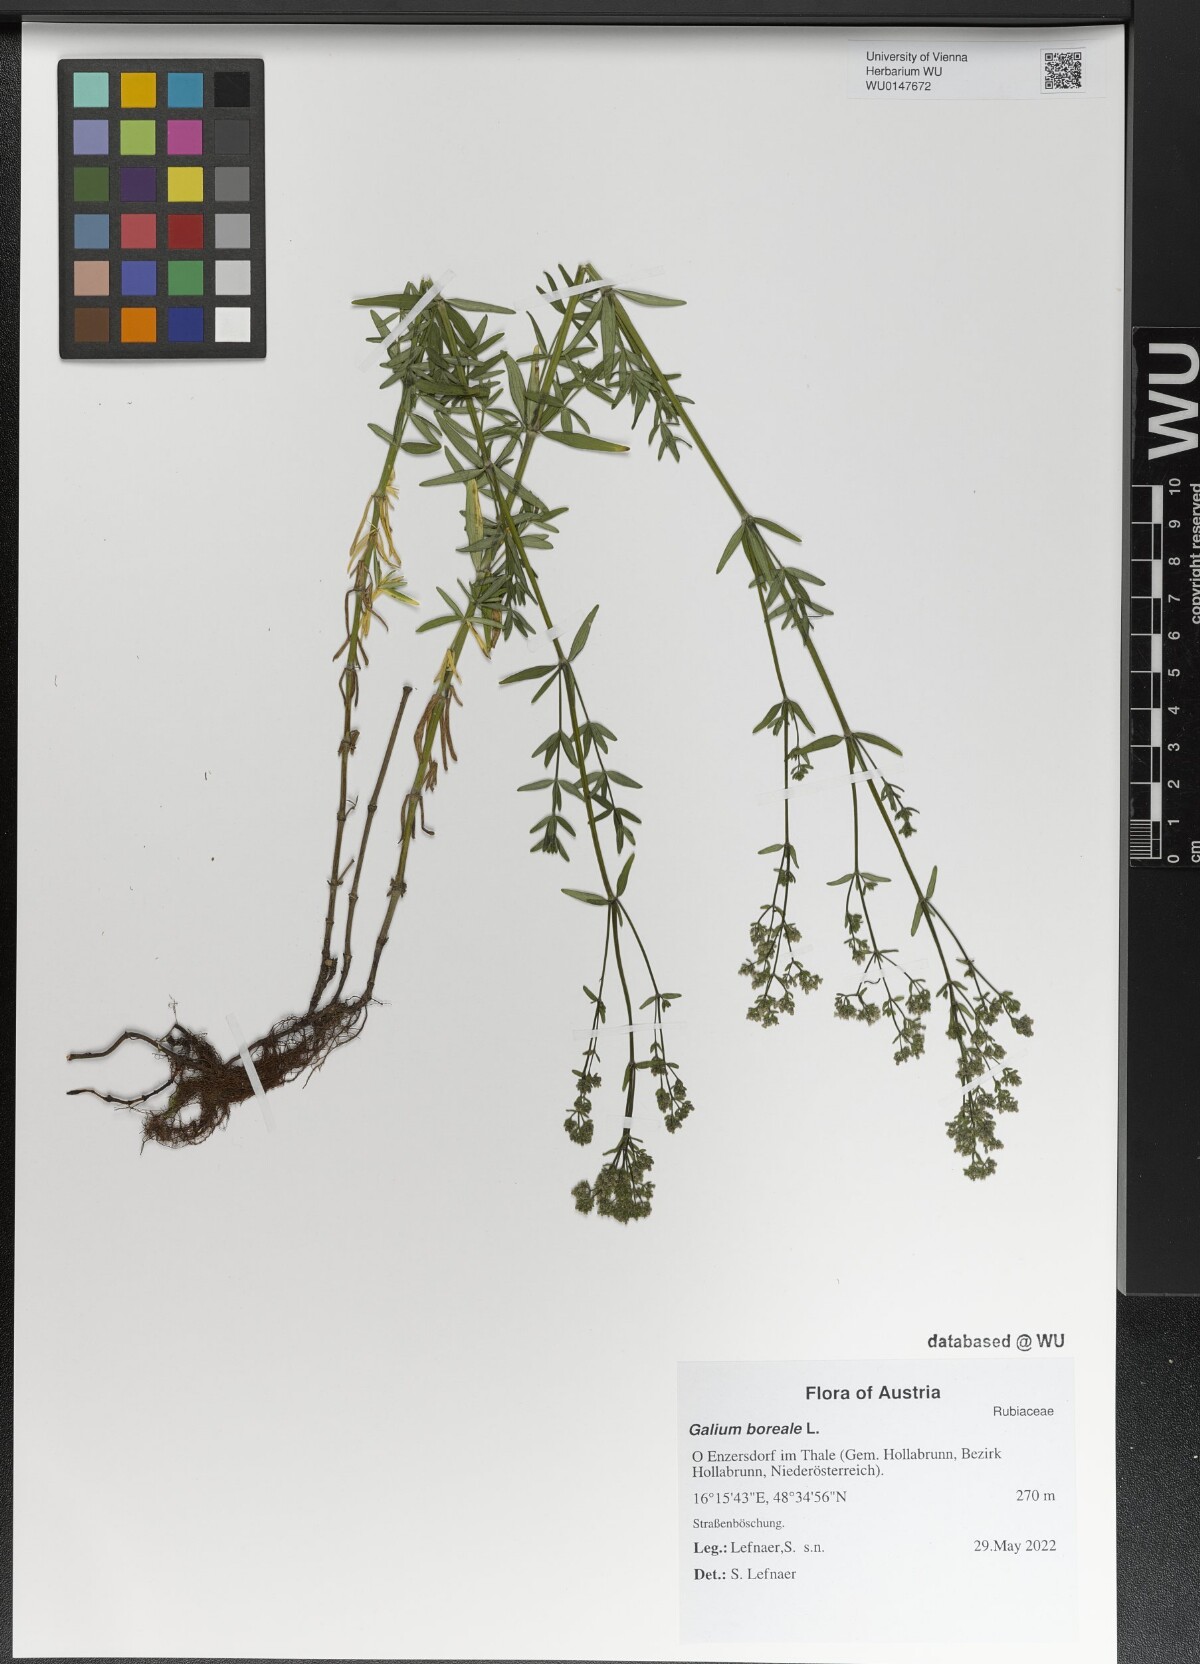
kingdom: Plantae
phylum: Tracheophyta
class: Magnoliopsida
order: Gentianales
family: Rubiaceae
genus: Galium
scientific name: Galium boreale
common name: Northern bedstraw
